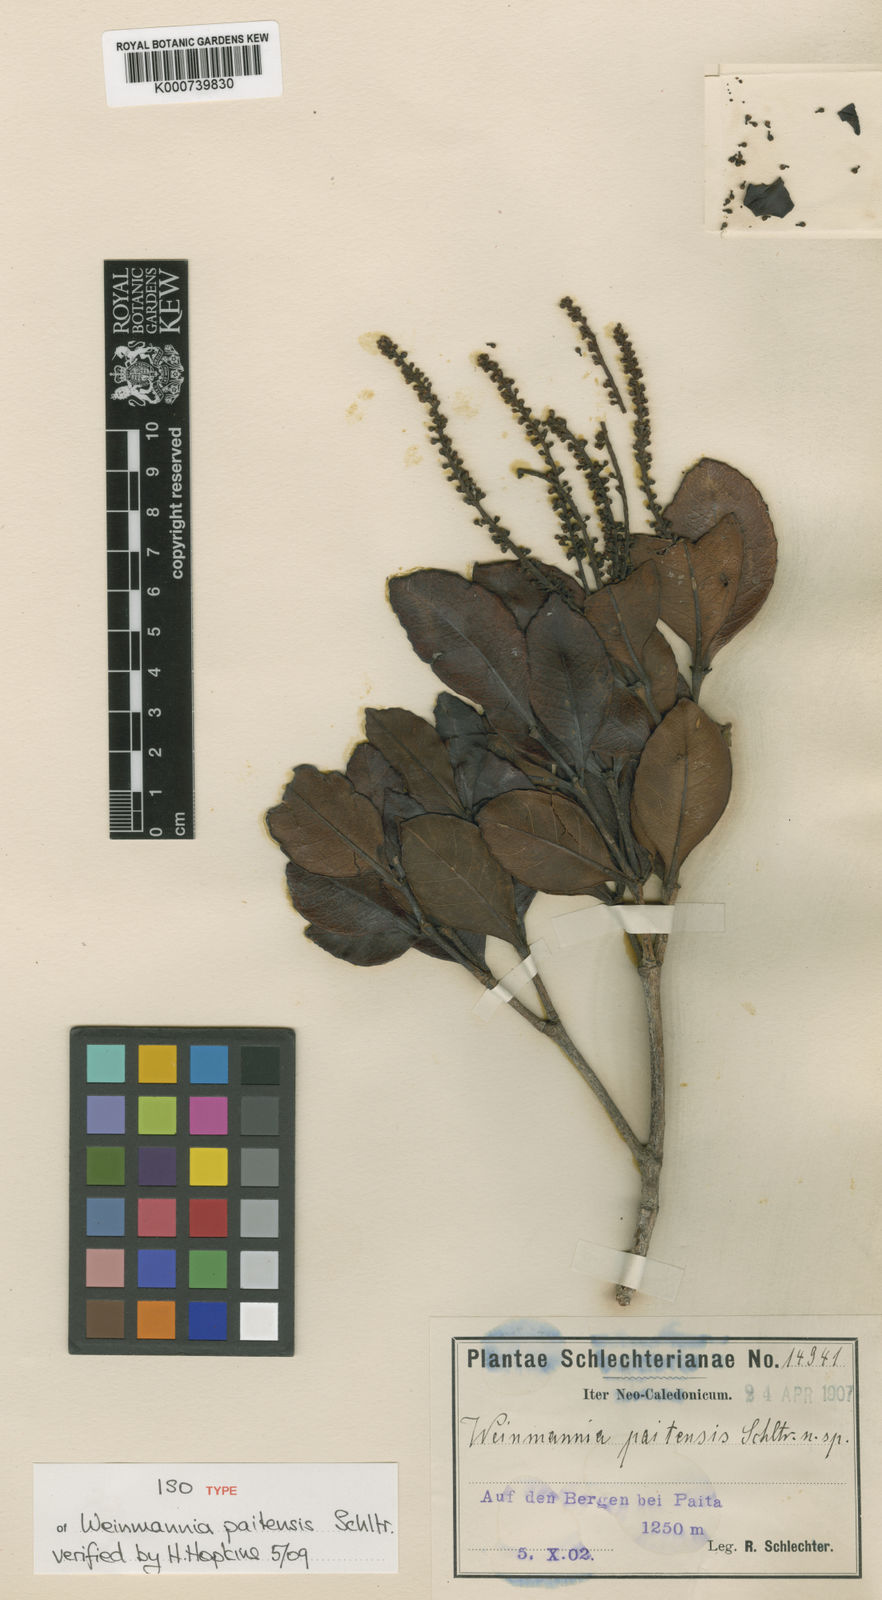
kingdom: Plantae
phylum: Tracheophyta
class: Magnoliopsida
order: Oxalidales
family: Cunoniaceae
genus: Pterophylla
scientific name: Pterophylla paitensis
